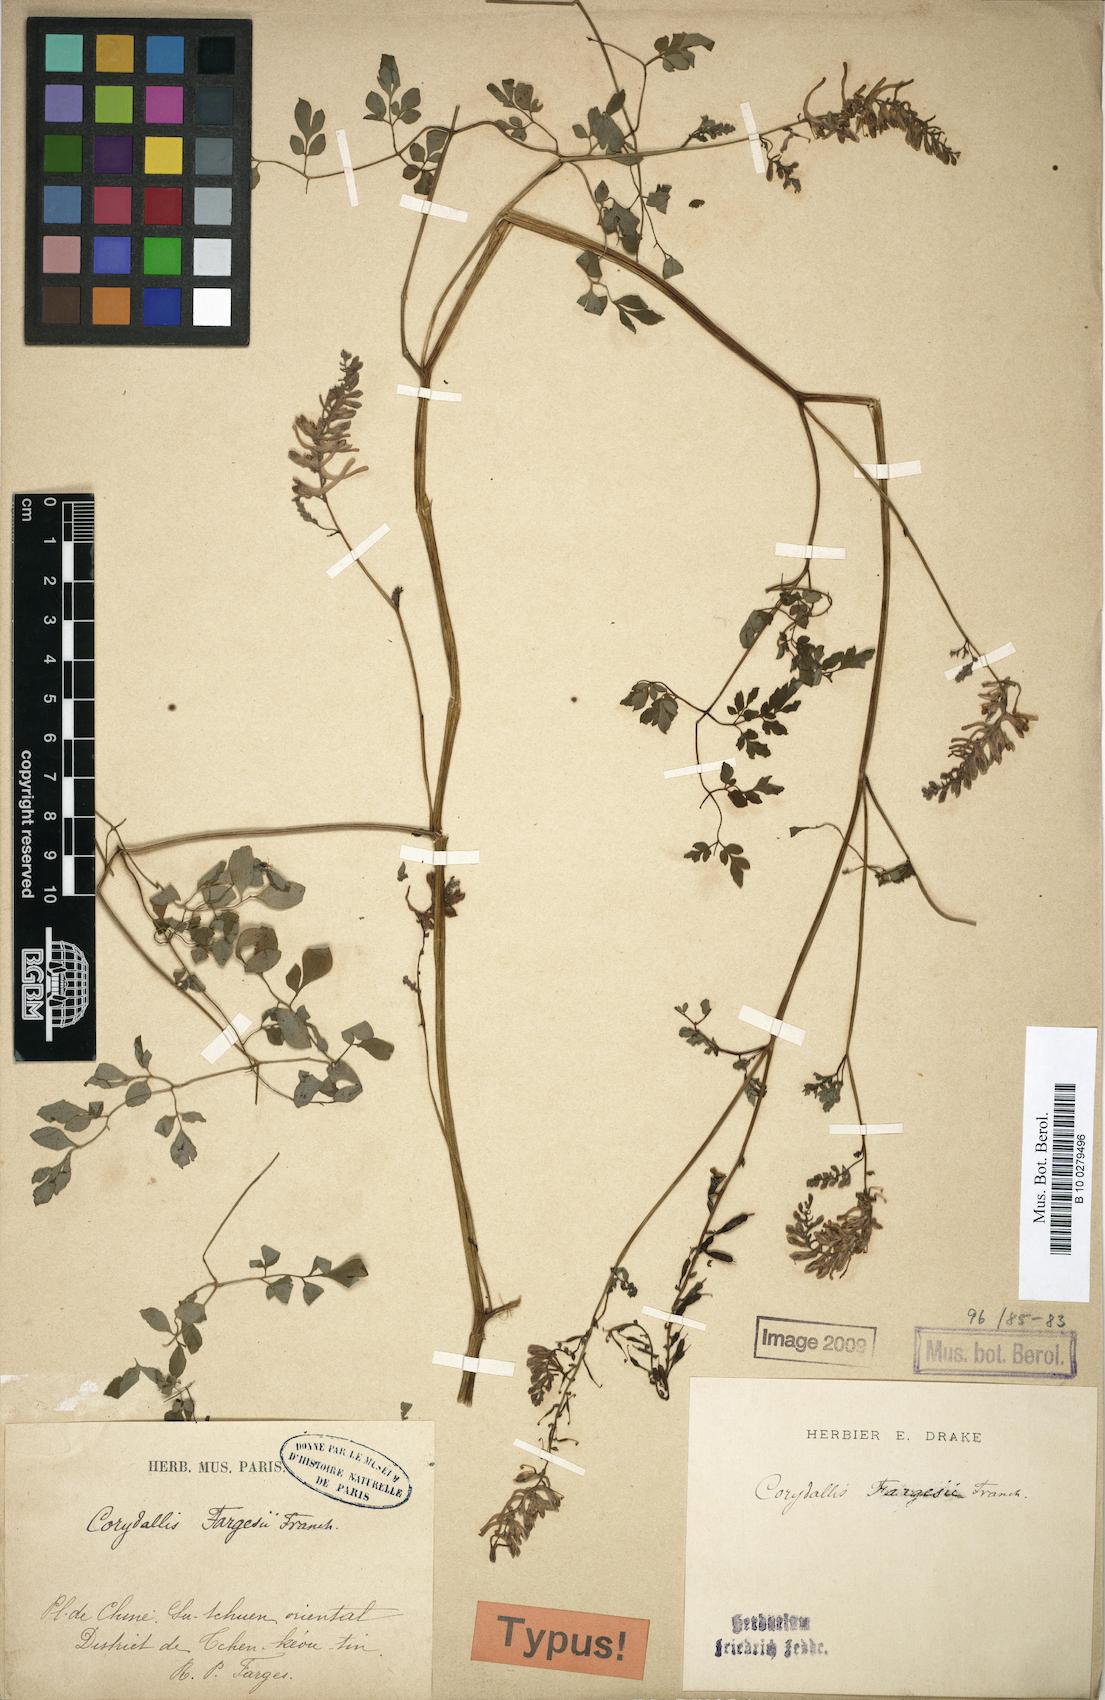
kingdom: Plantae
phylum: Tracheophyta
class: Magnoliopsida
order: Ranunculales
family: Papaveraceae
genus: Corydalis
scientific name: Corydalis fargesii
